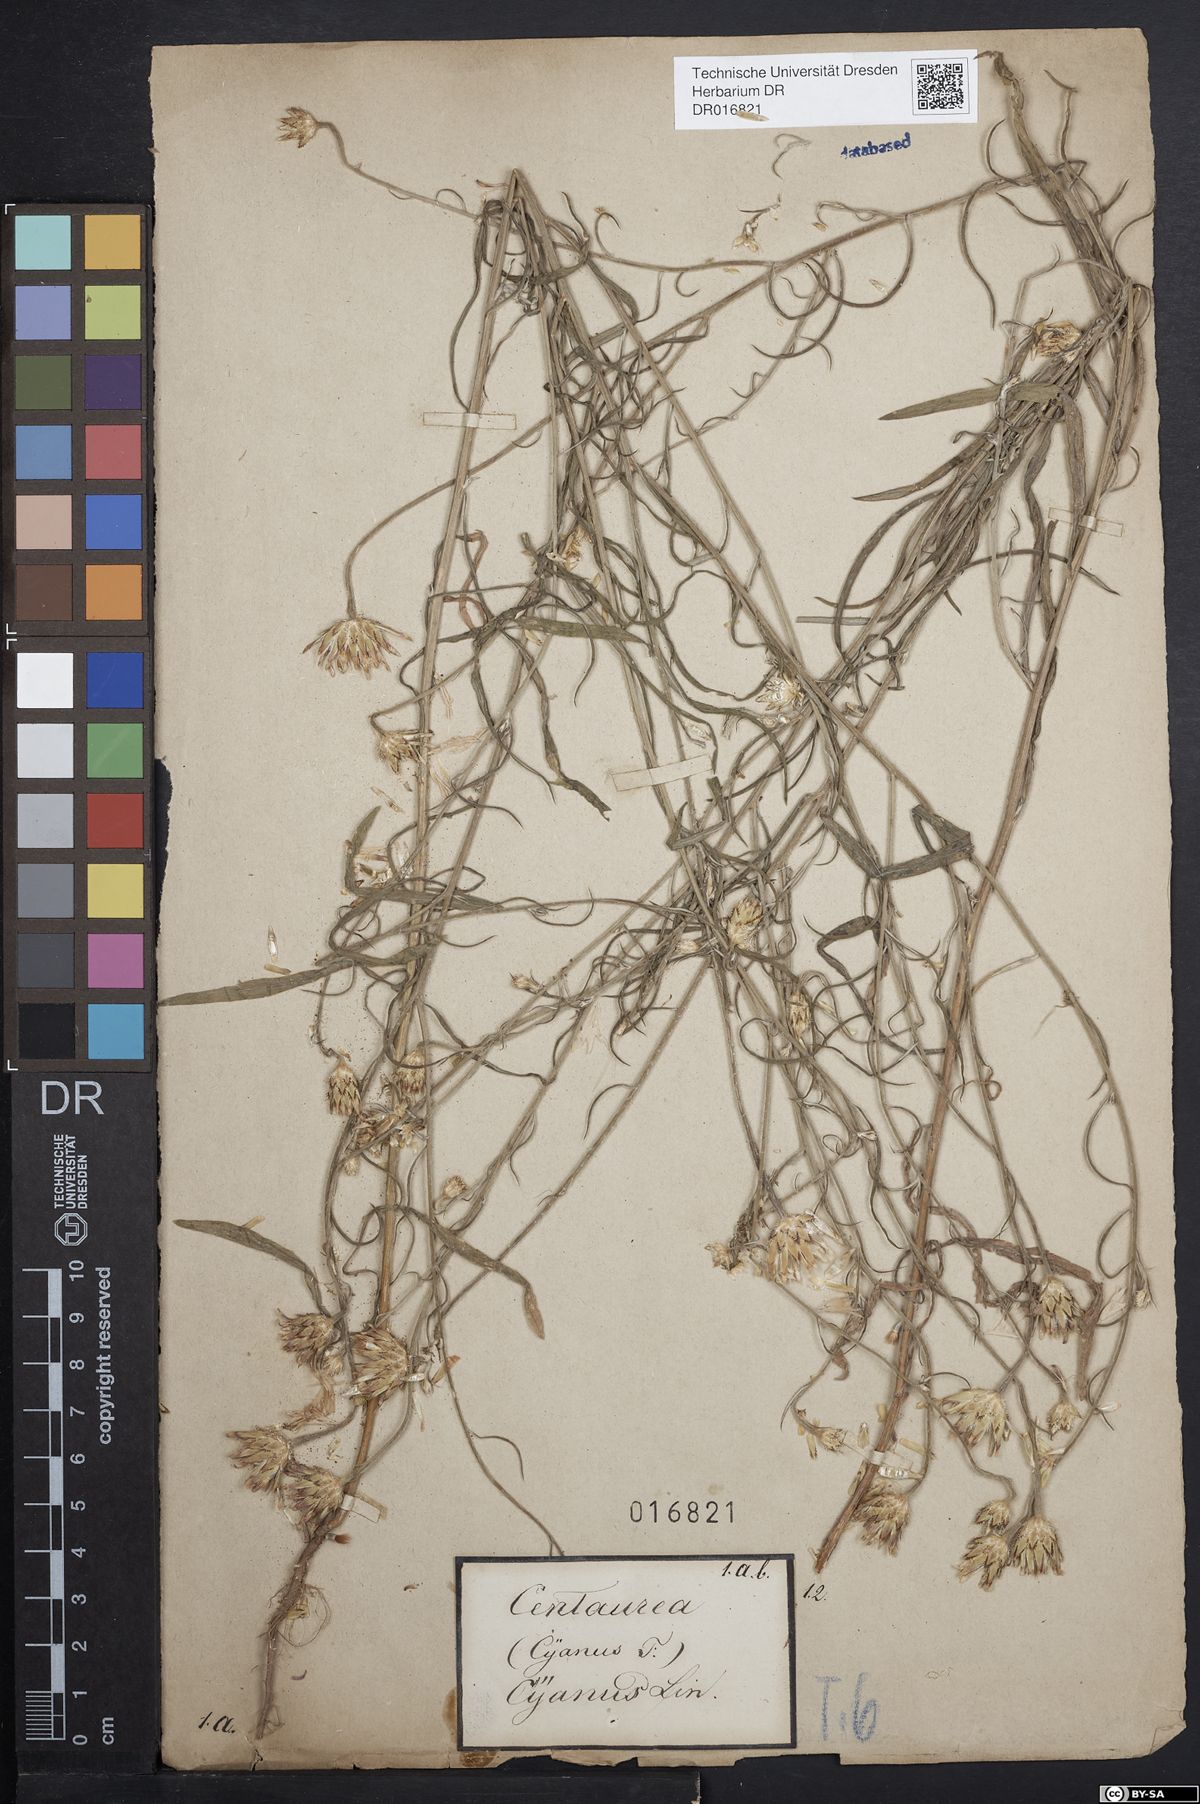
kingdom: Plantae
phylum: Tracheophyta
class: Magnoliopsida
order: Asterales
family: Asteraceae
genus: Centaurea
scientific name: Centaurea cyanus
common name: Cornflower
